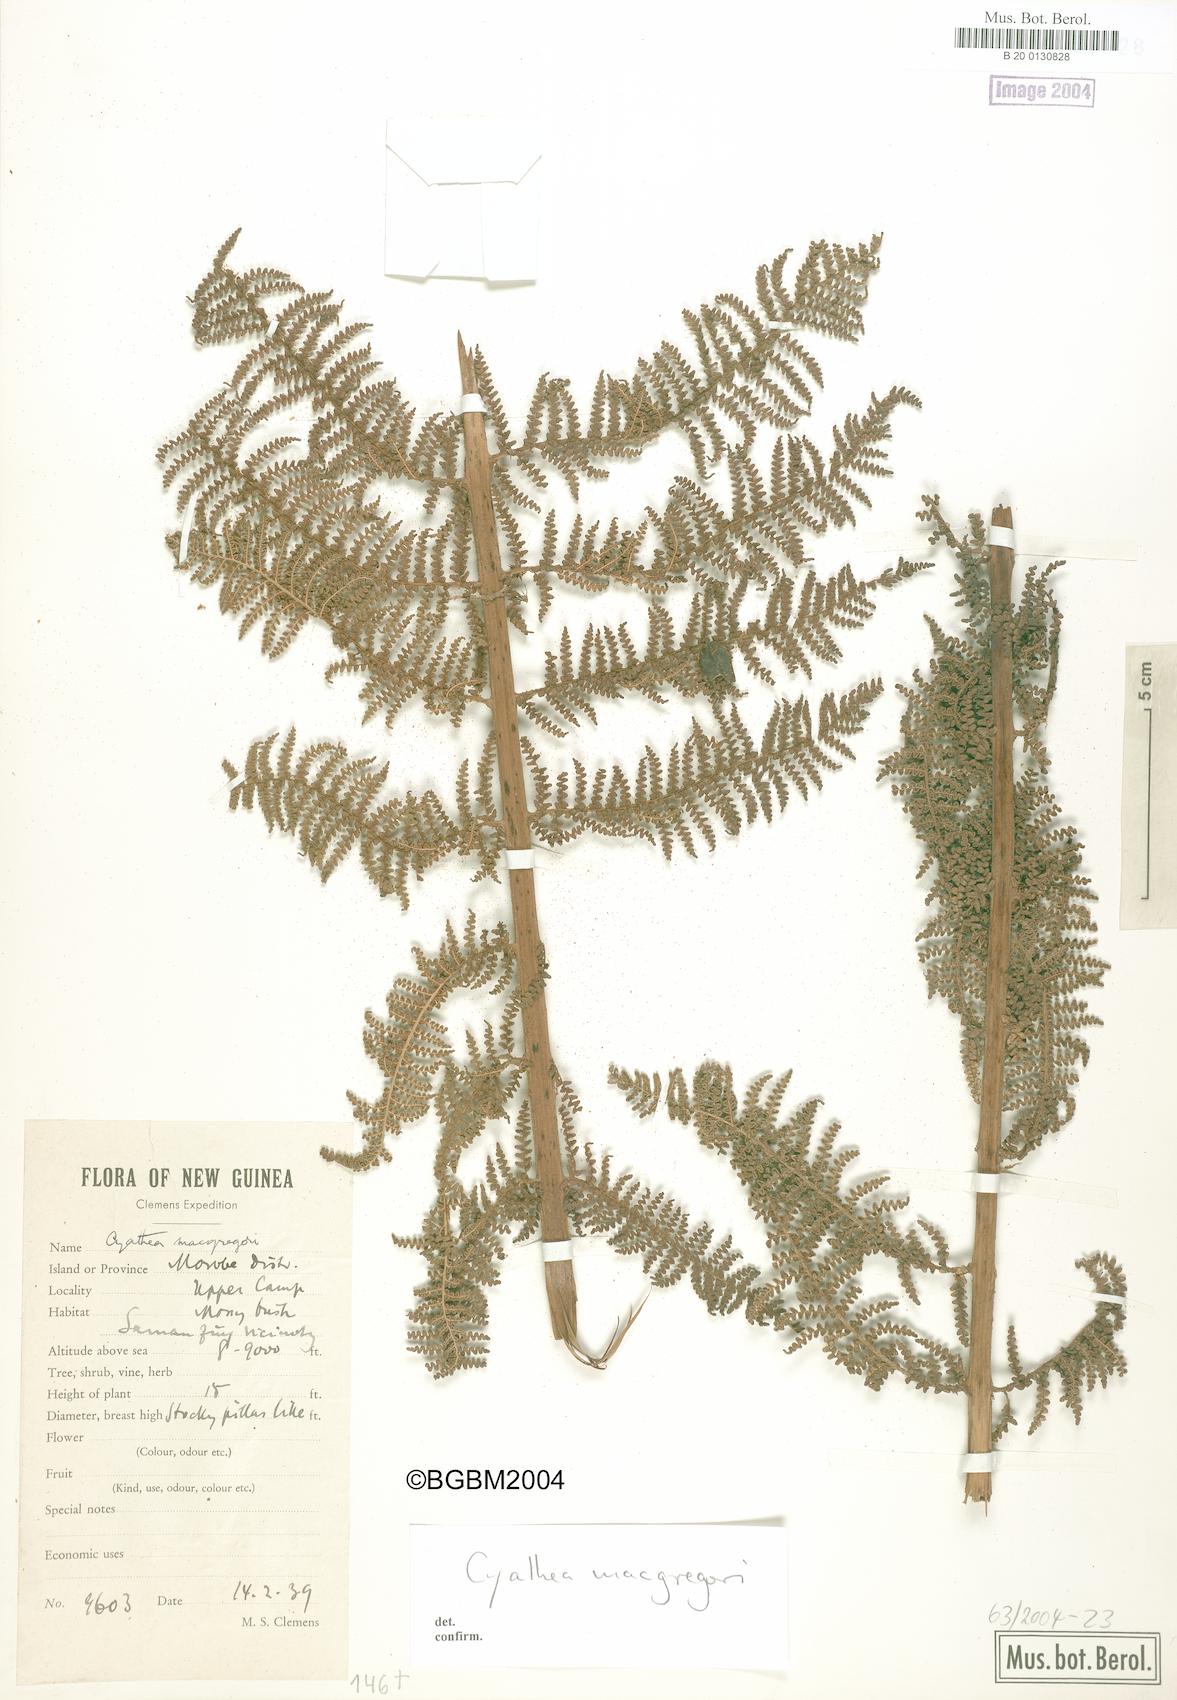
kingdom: Plantae
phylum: Tracheophyta
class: Polypodiopsida
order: Cyatheales
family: Cyatheaceae
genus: Alsophila
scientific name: Alsophila macgregorii
